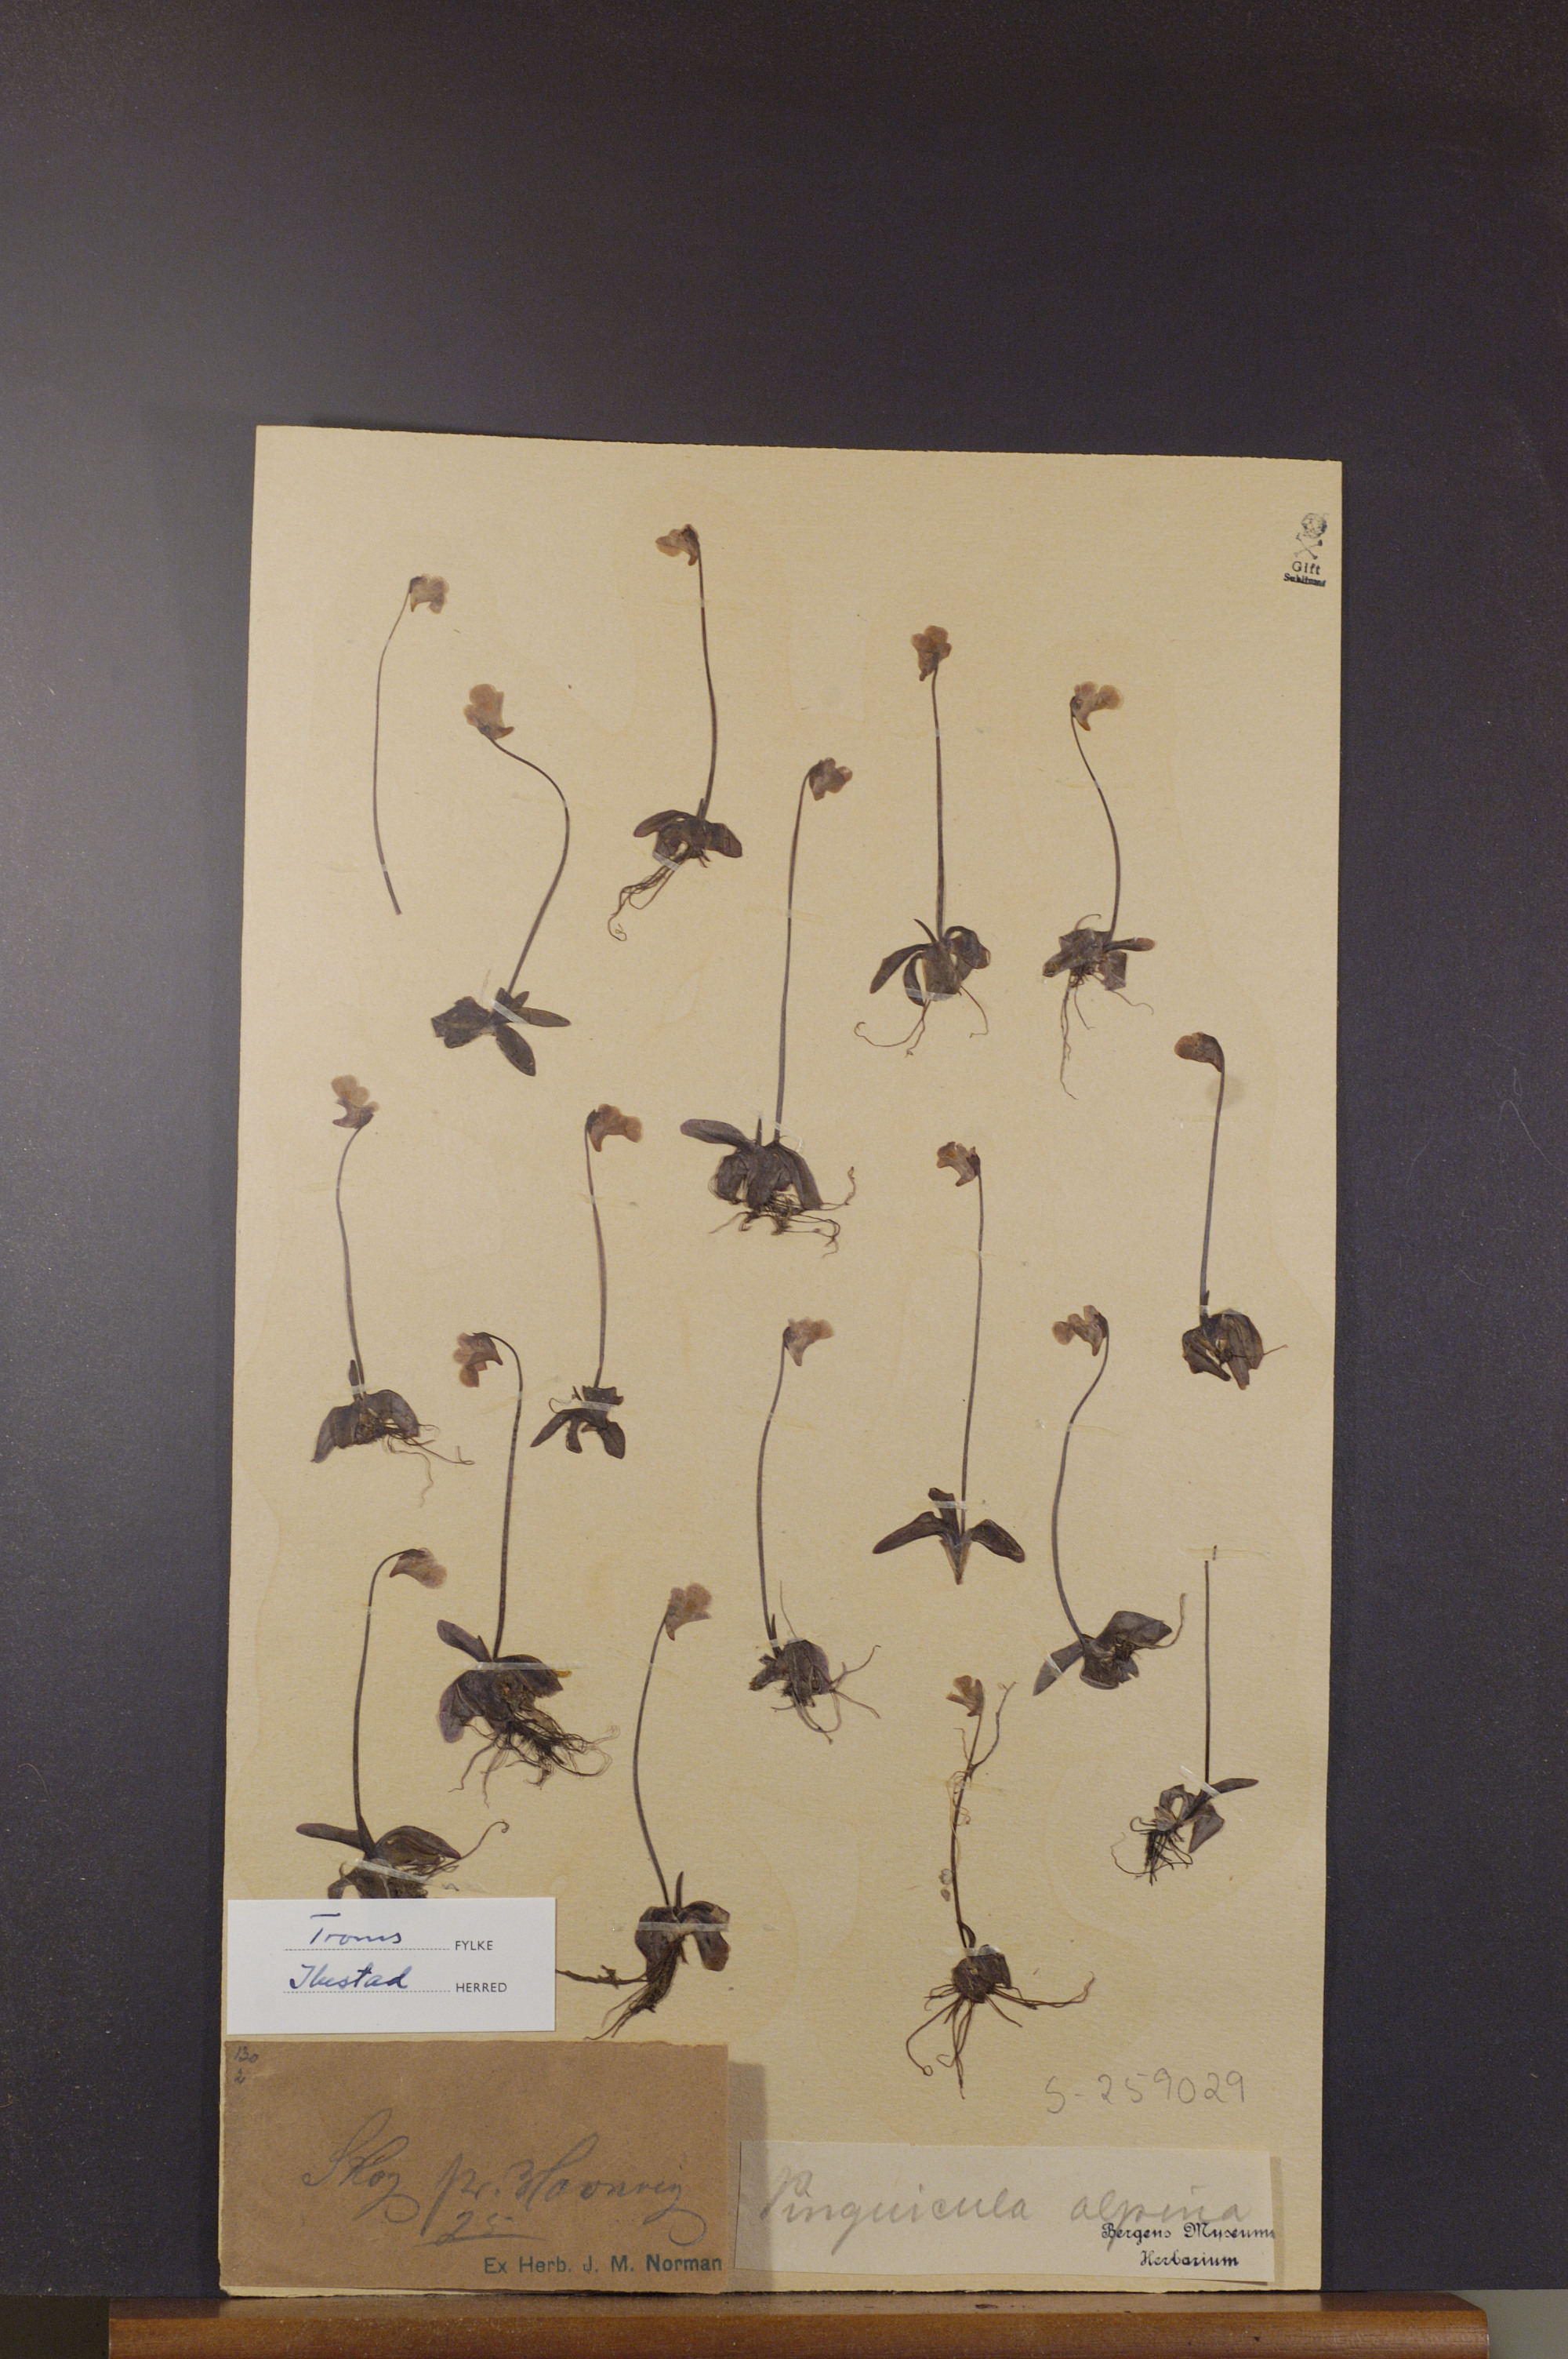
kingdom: Plantae
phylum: Tracheophyta
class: Magnoliopsida
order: Lamiales
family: Lentibulariaceae
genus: Pinguicula
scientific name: Pinguicula alpina
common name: Alpine butterwort
